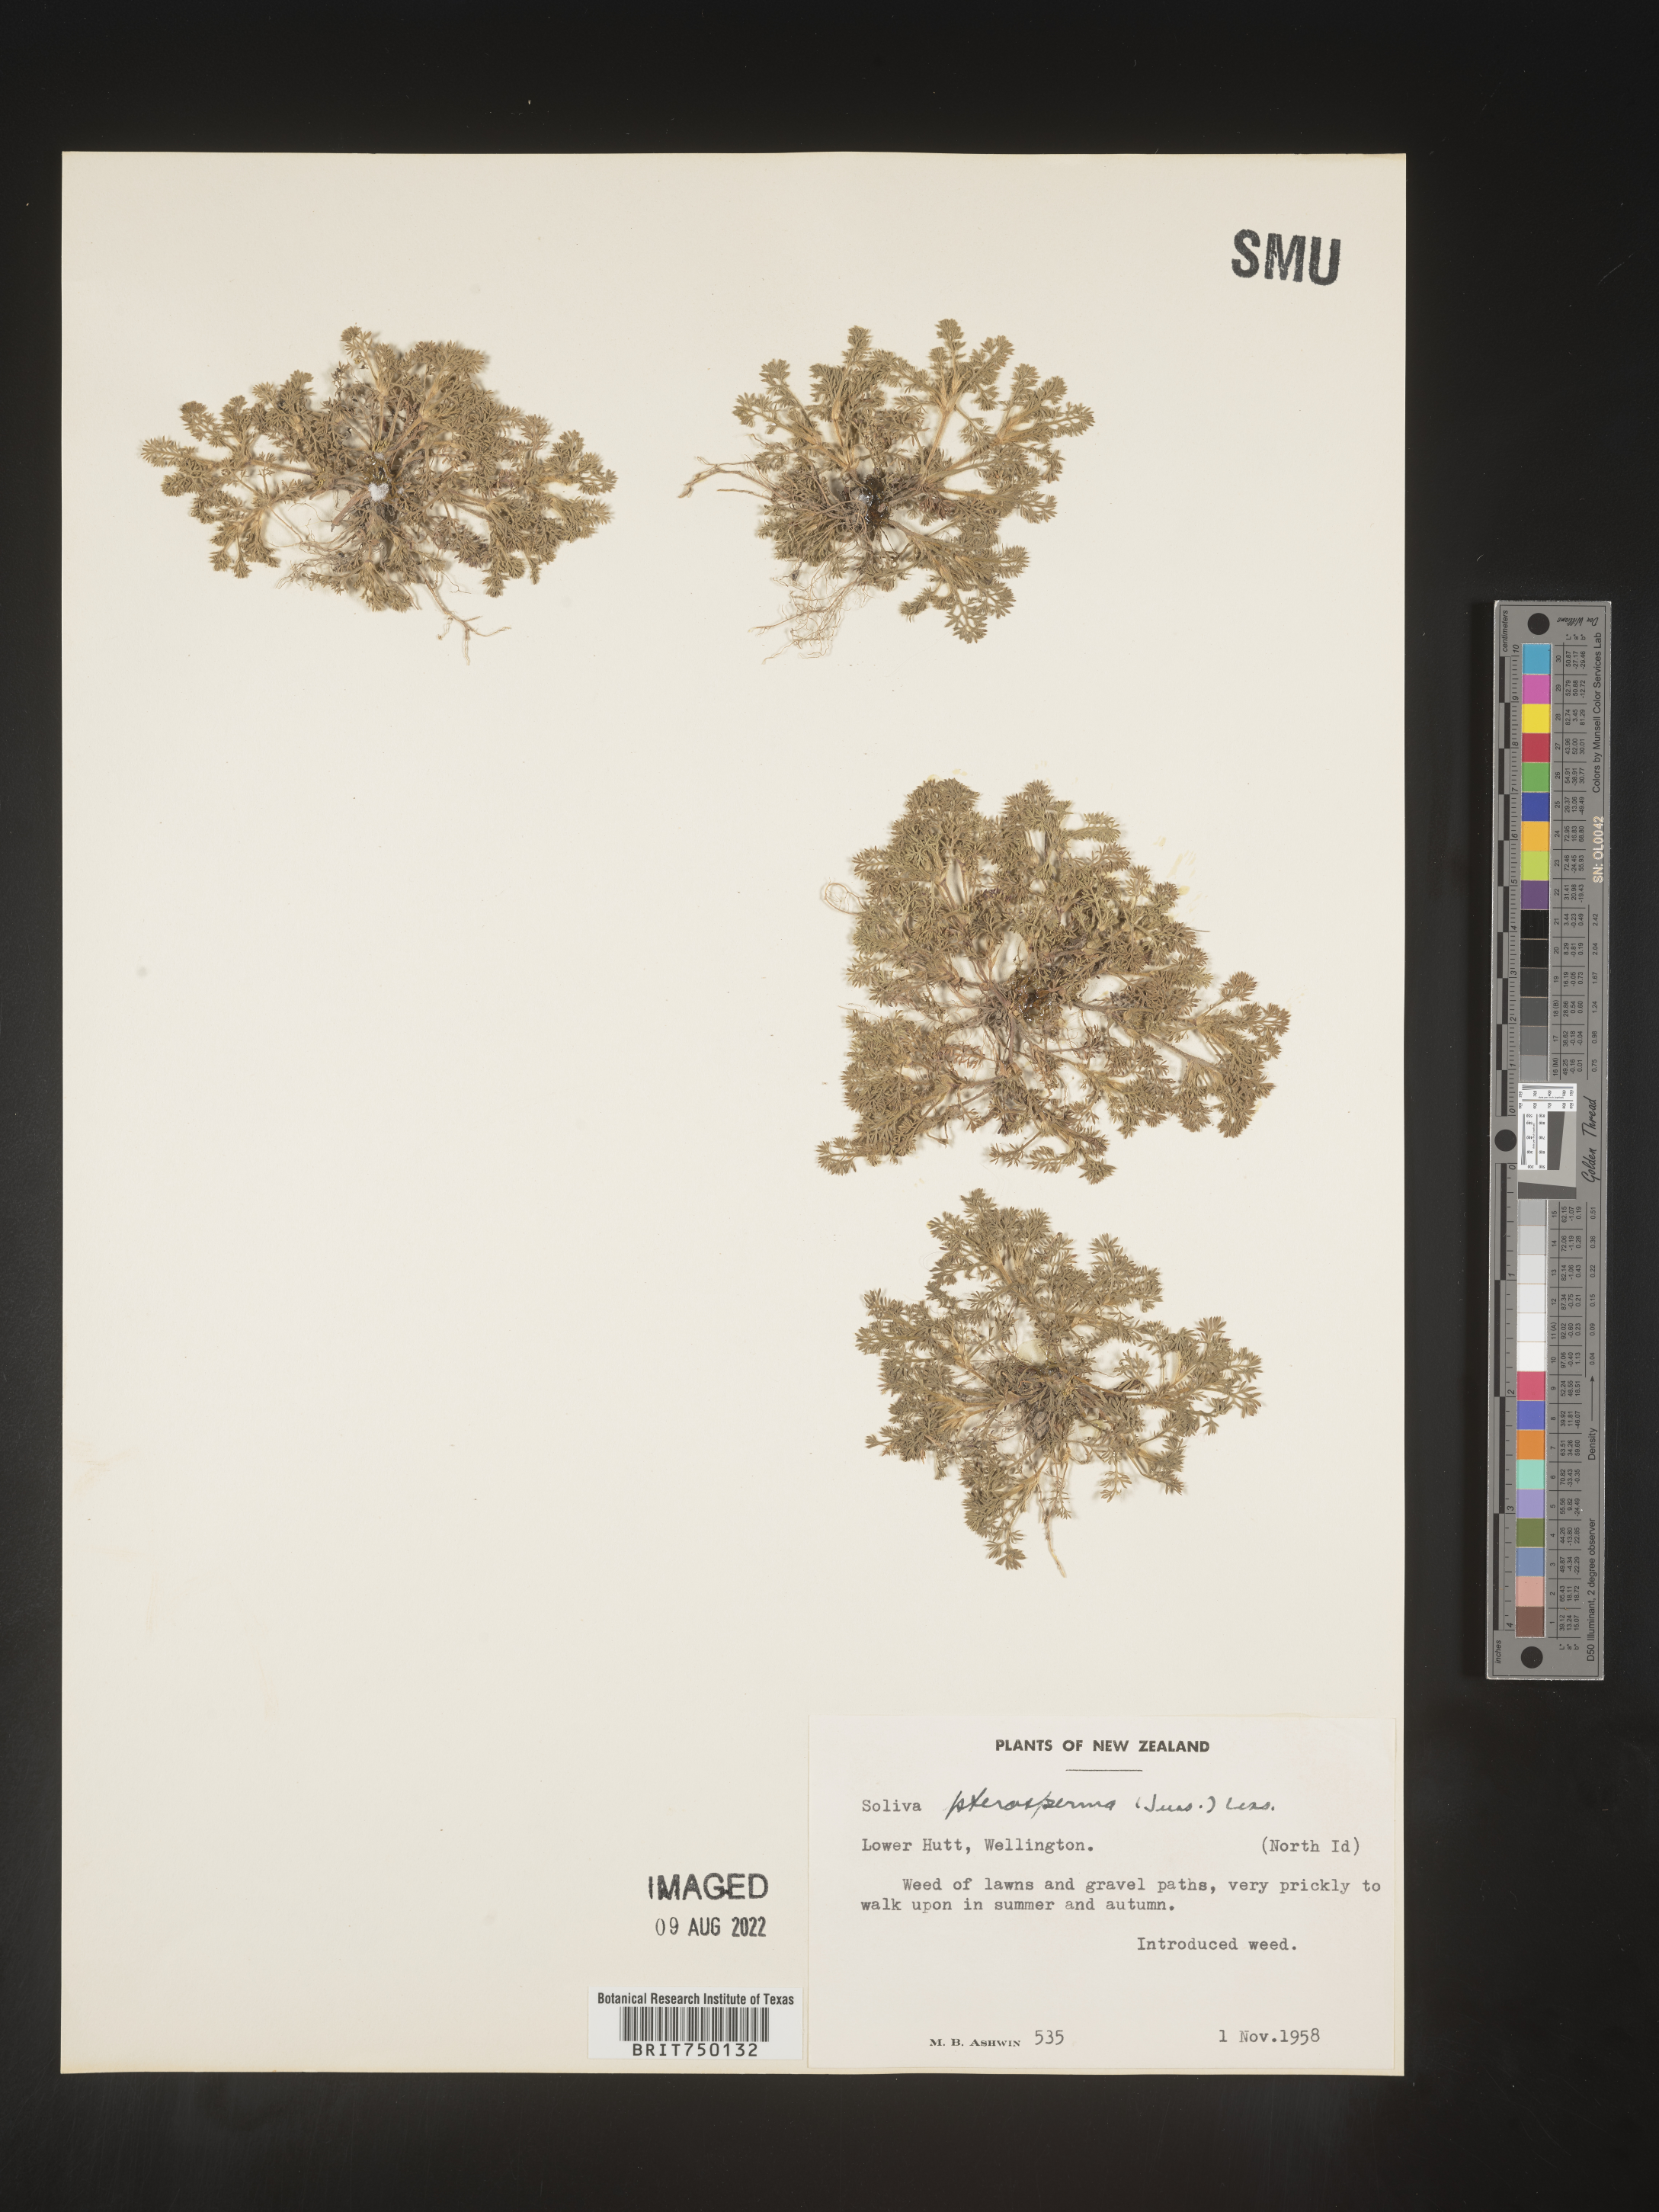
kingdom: Plantae
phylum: Tracheophyta
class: Magnoliopsida
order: Asterales
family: Asteraceae
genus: Soliva
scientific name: Soliva
